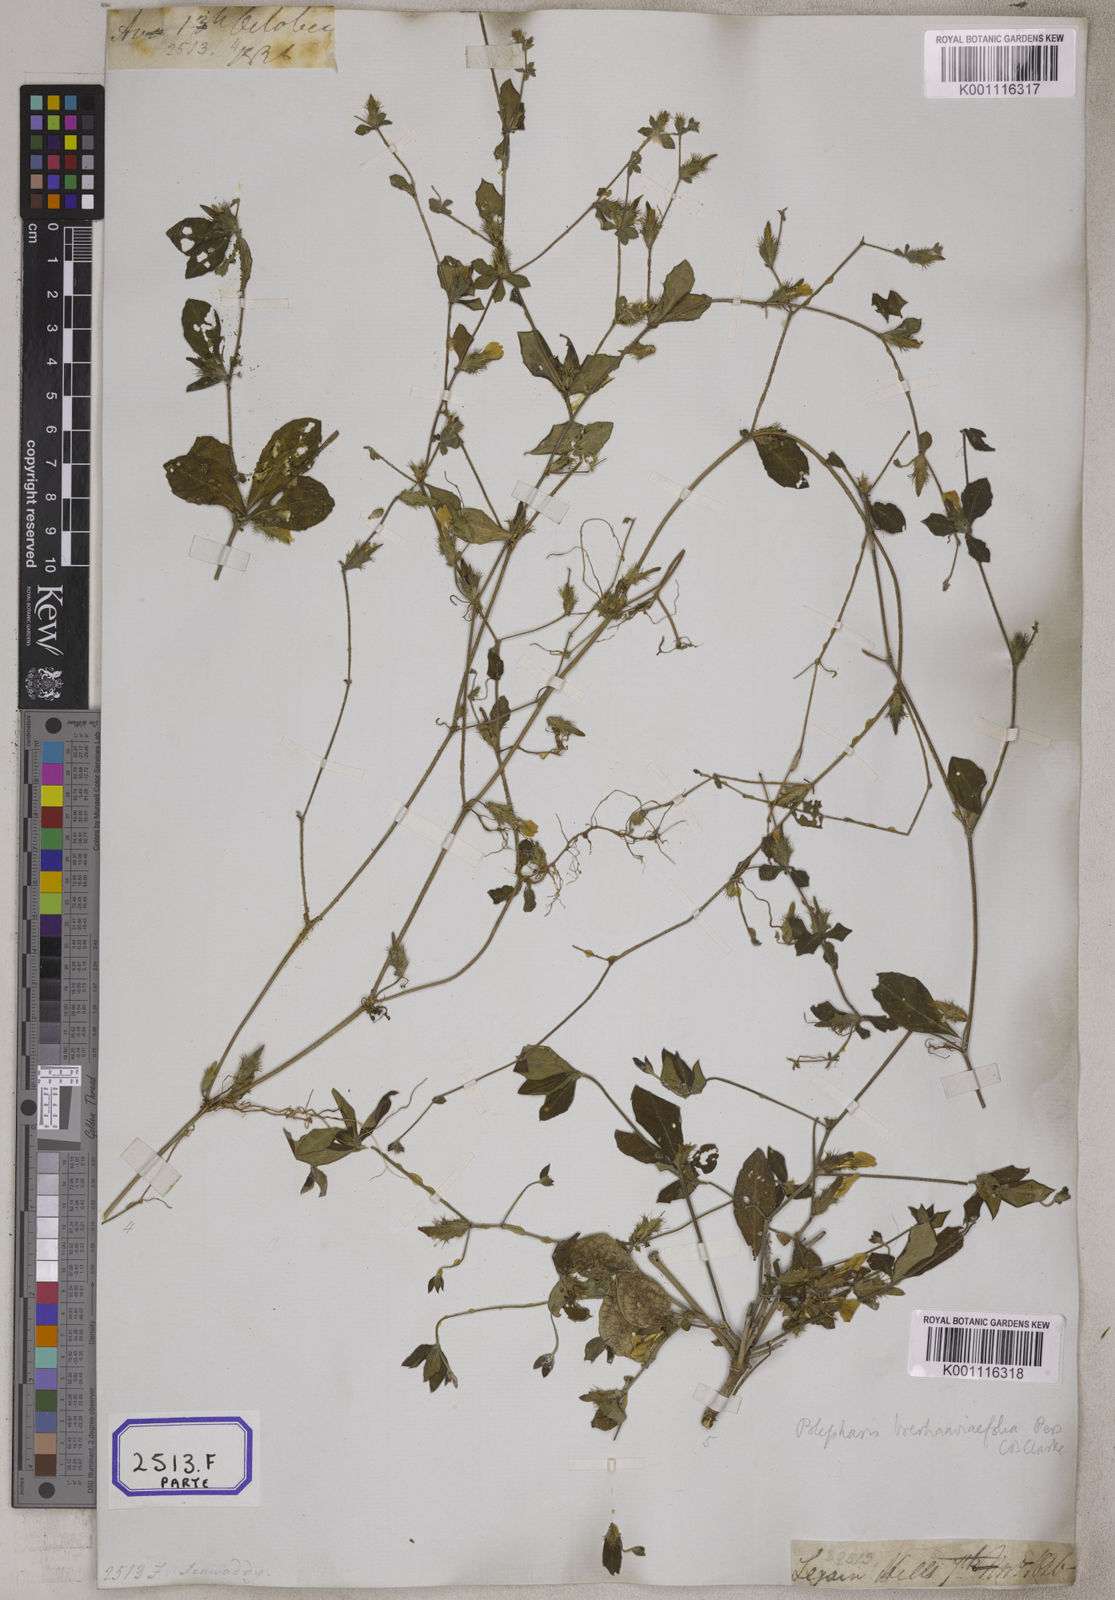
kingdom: Plantae
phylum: Tracheophyta
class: Magnoliopsida
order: Lamiales
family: Acanthaceae
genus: Blepharis
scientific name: Blepharis
